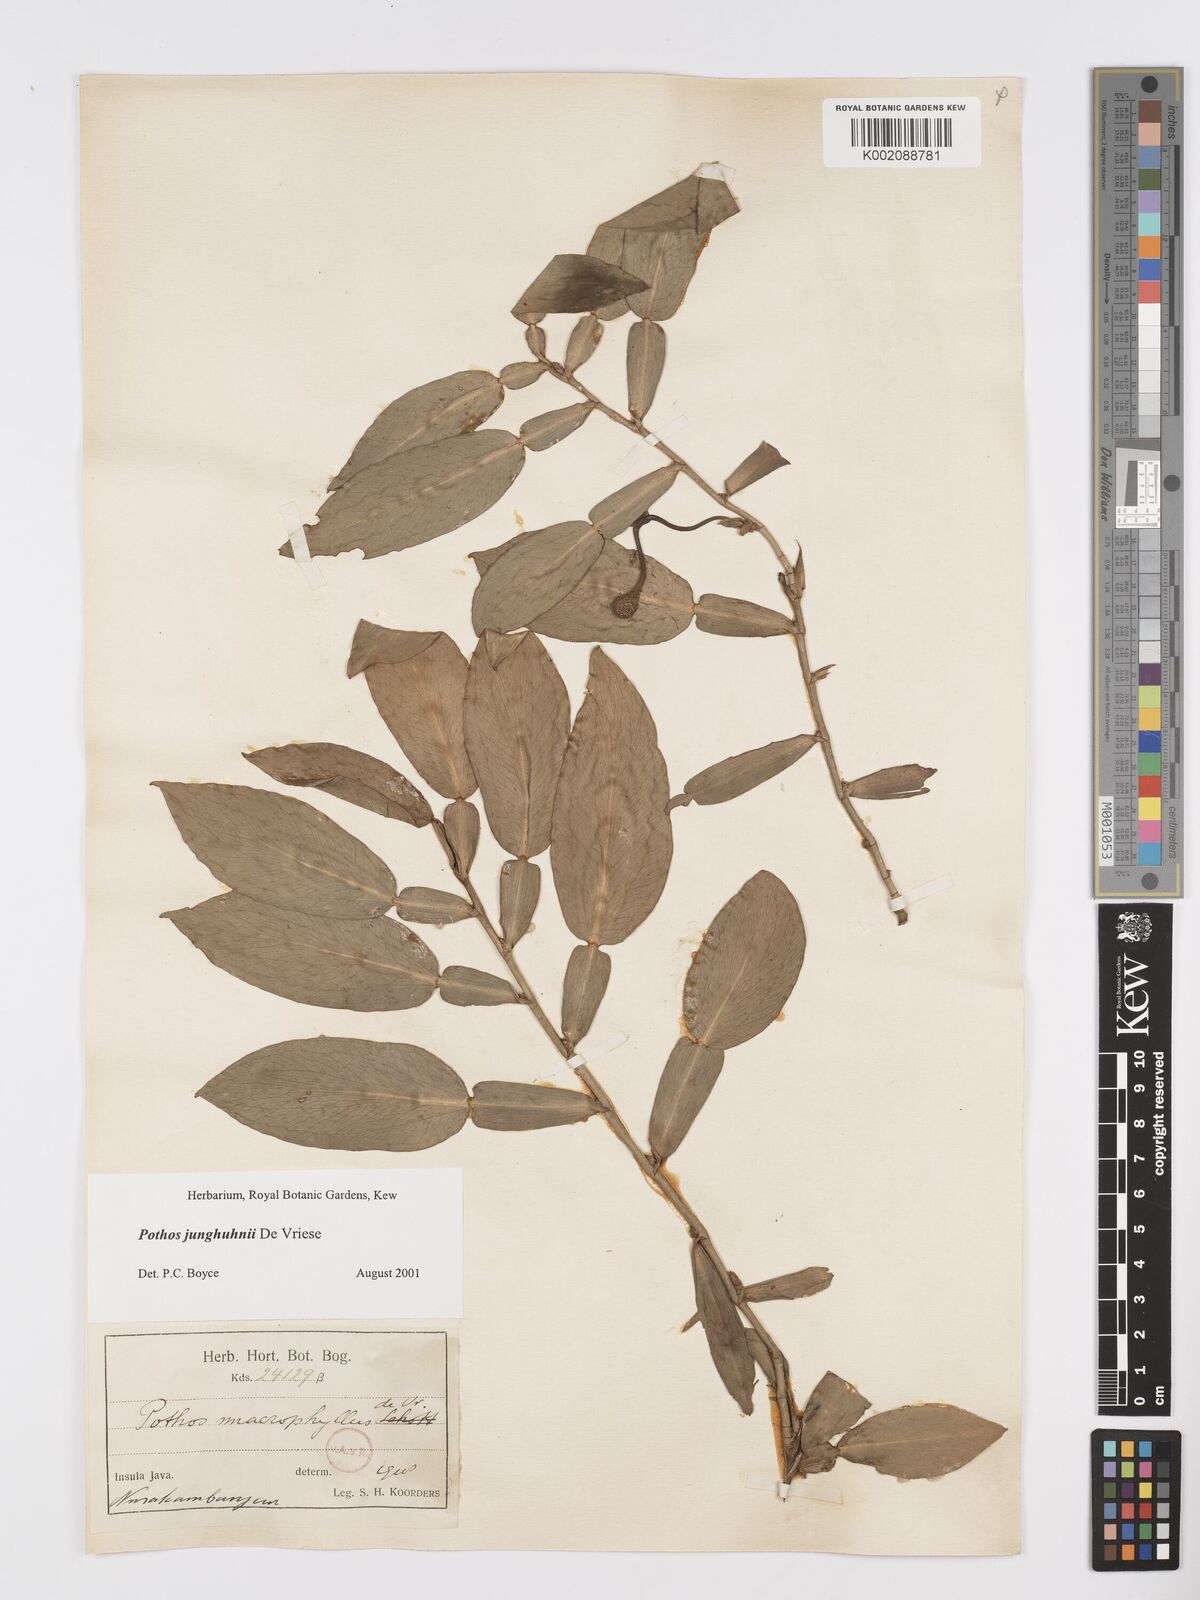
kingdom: Plantae
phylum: Tracheophyta
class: Liliopsida
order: Alismatales
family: Araceae
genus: Pothos
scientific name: Pothos junghuhnii
